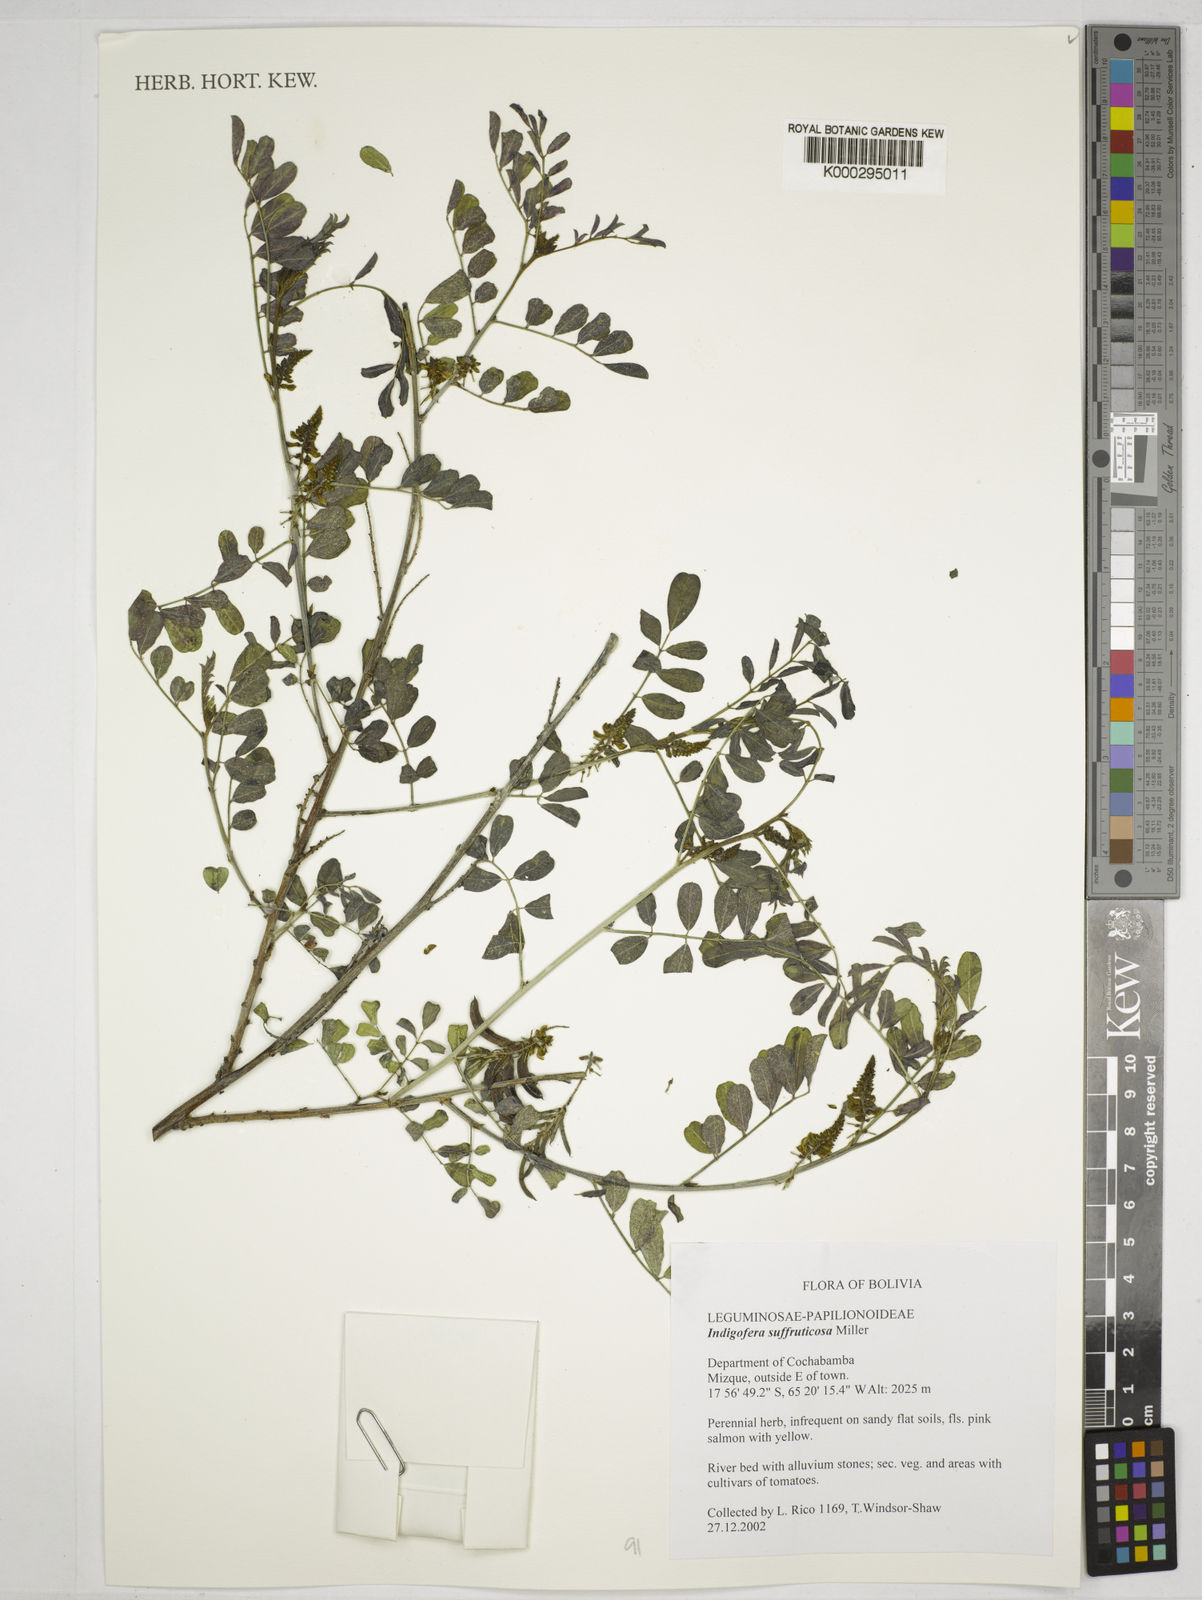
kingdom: Plantae
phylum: Tracheophyta
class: Magnoliopsida
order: Fabales
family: Fabaceae
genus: Indigofera
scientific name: Indigofera suffruticosa
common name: Anil de pasto
